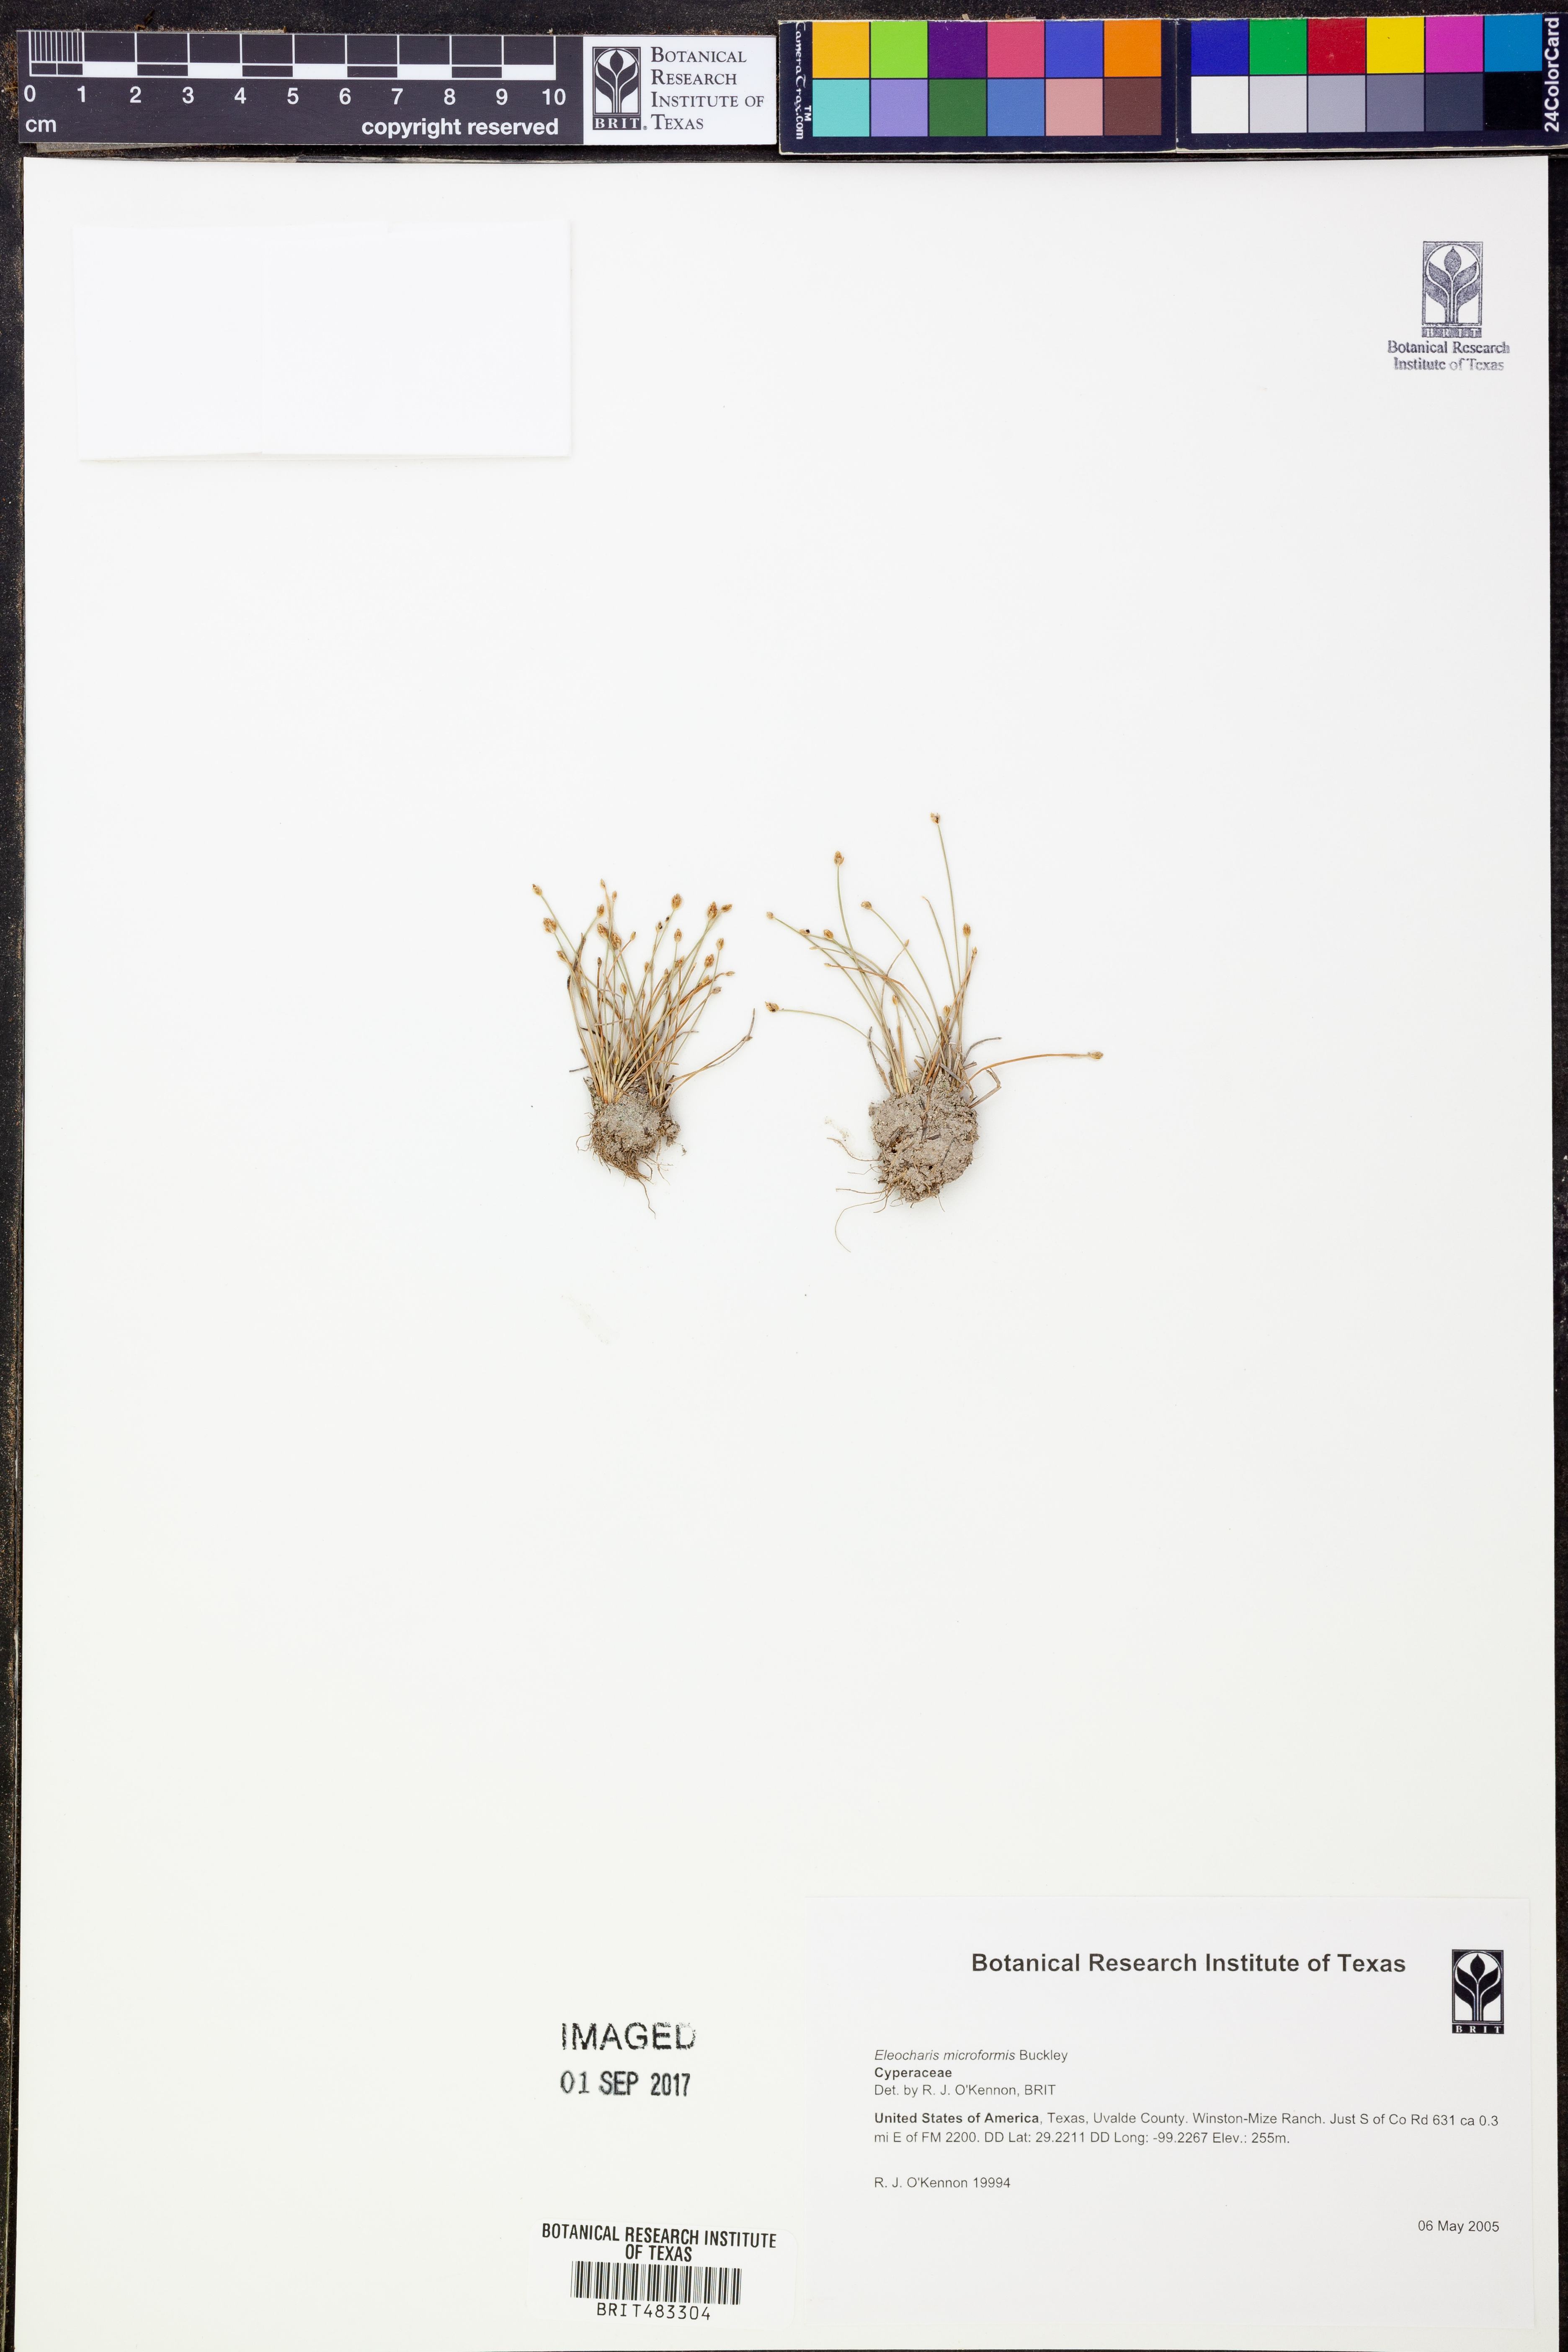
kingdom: Plantae
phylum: Tracheophyta
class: Liliopsida
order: Poales
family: Cyperaceae
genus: Eleocharis
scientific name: Eleocharis microformis
